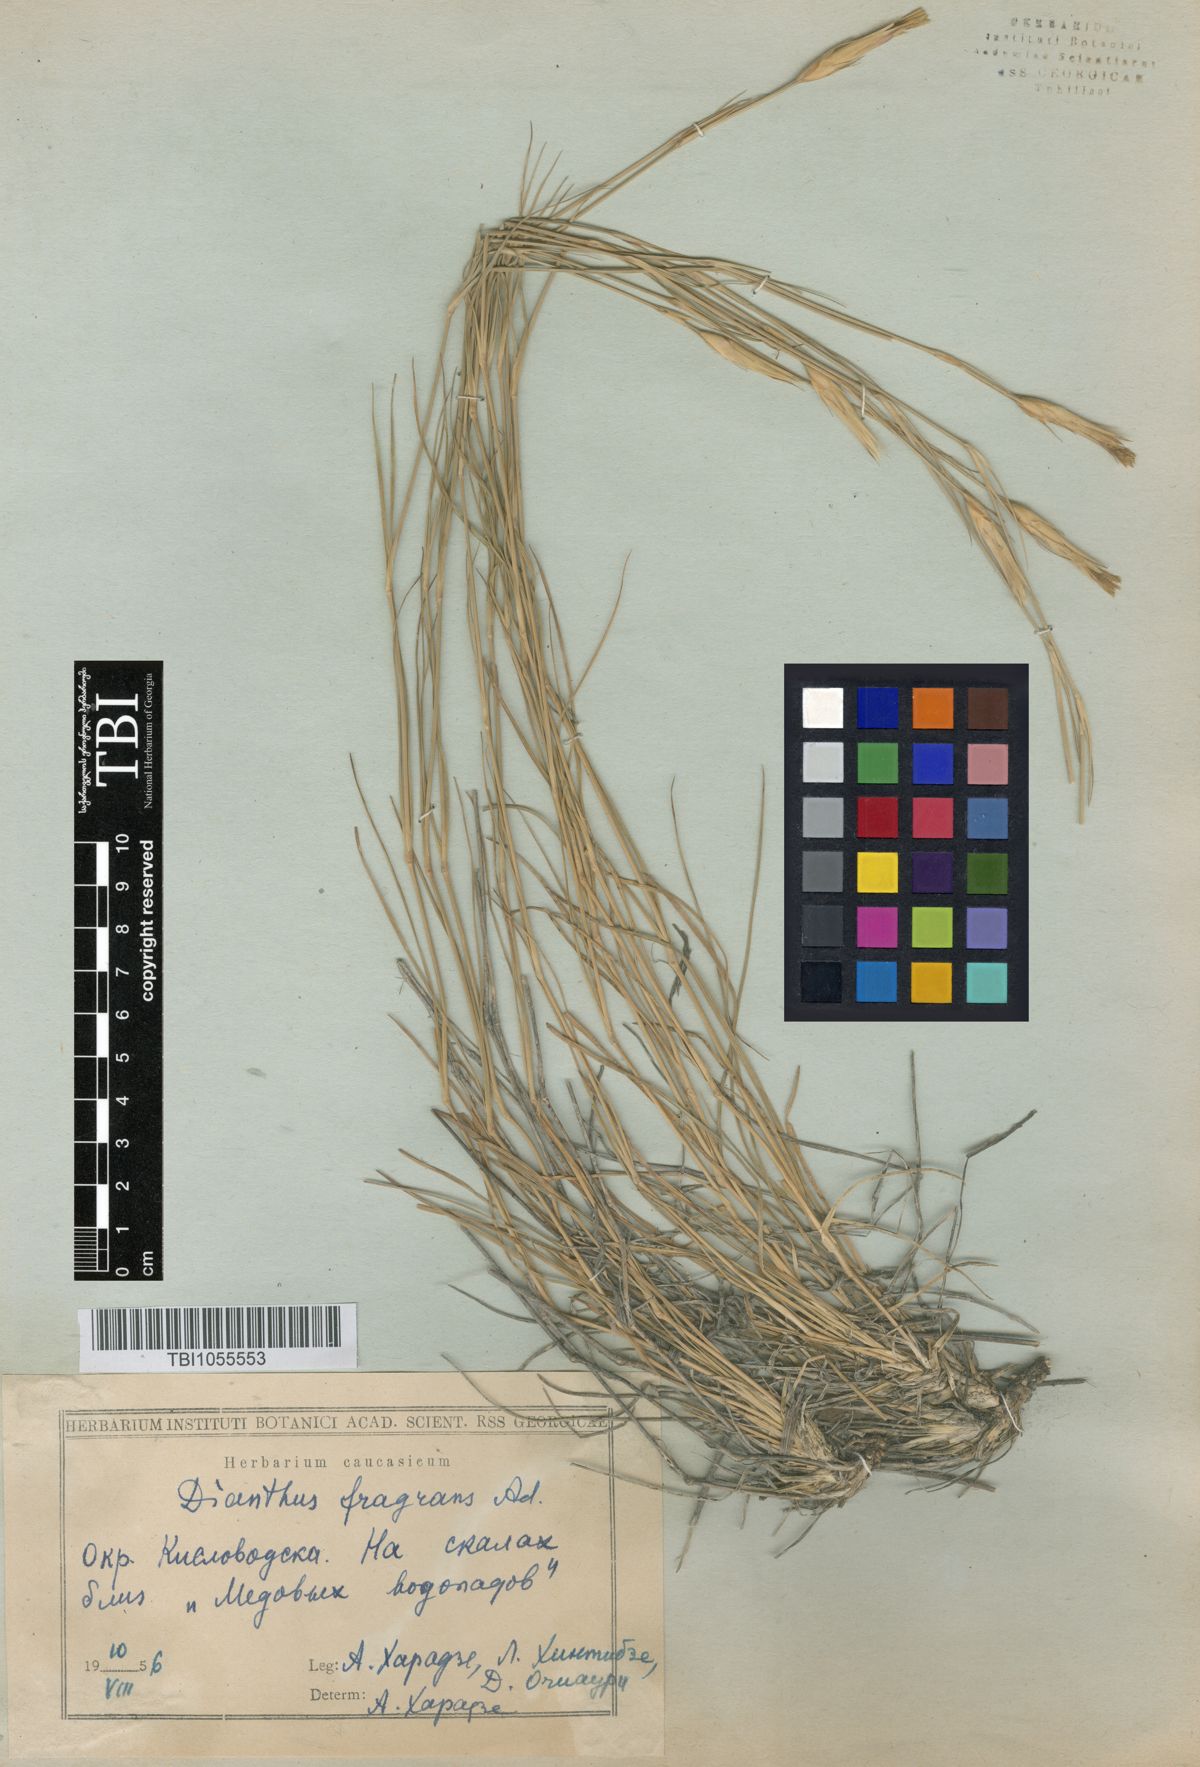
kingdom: Plantae
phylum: Tracheophyta
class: Magnoliopsida
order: Caryophyllales
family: Caryophyllaceae
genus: Dianthus
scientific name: Dianthus
